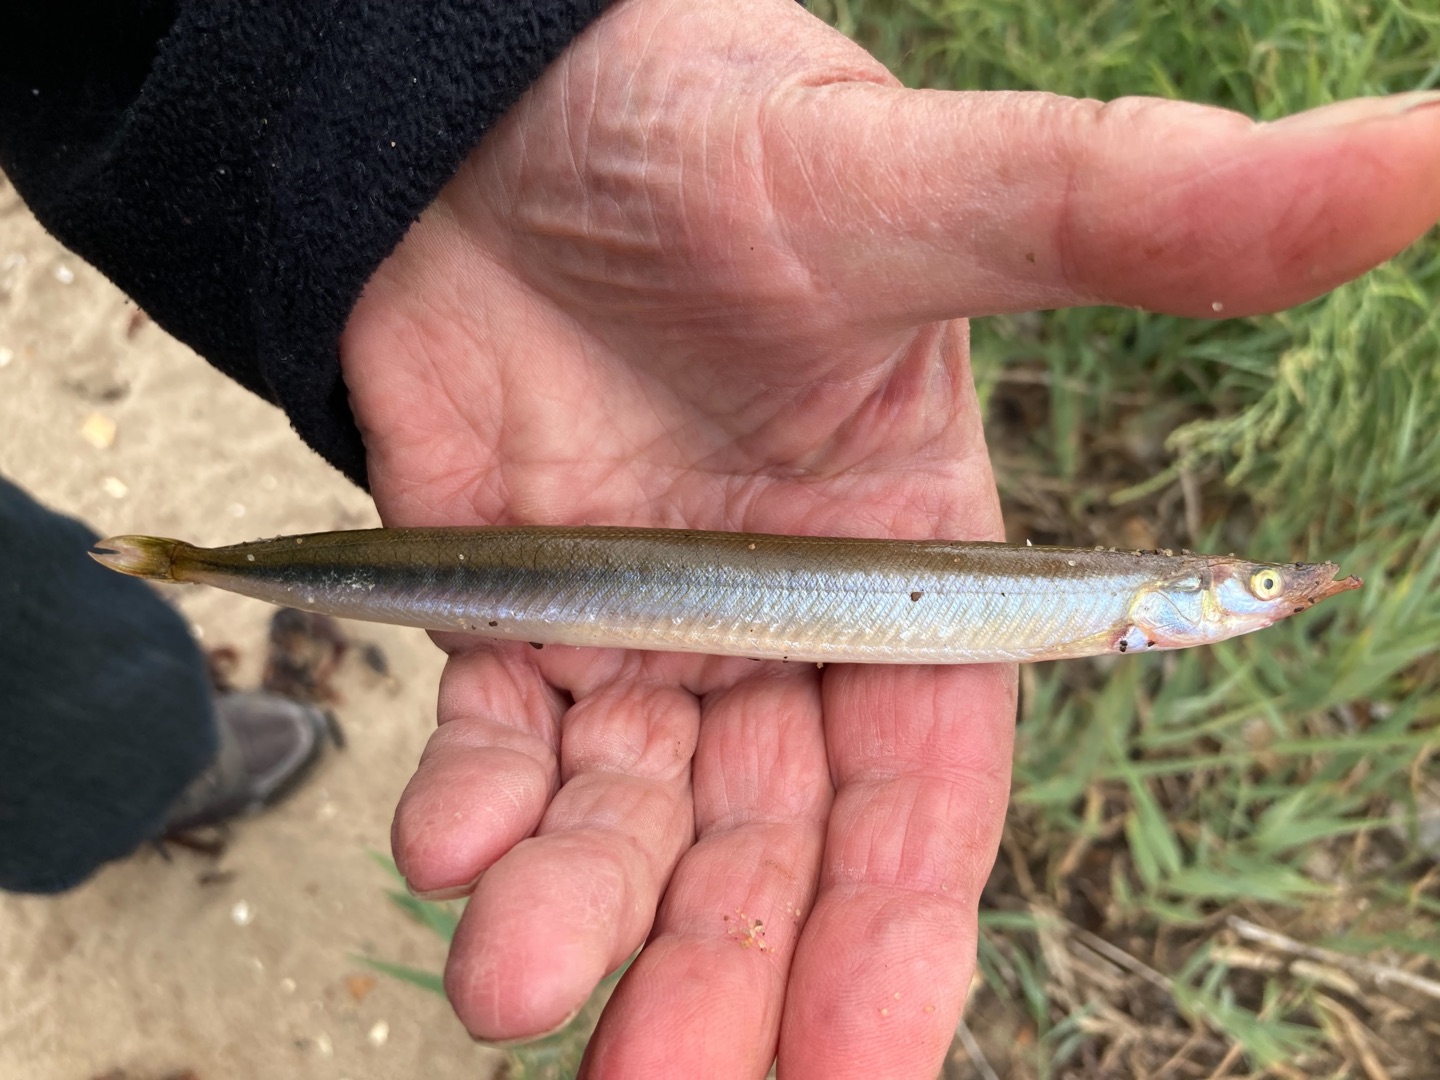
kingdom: Animalia
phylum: Chordata
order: Perciformes
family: Ammodytidae
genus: Ammodytes
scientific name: Ammodytes tobianus
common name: Kysttobis
